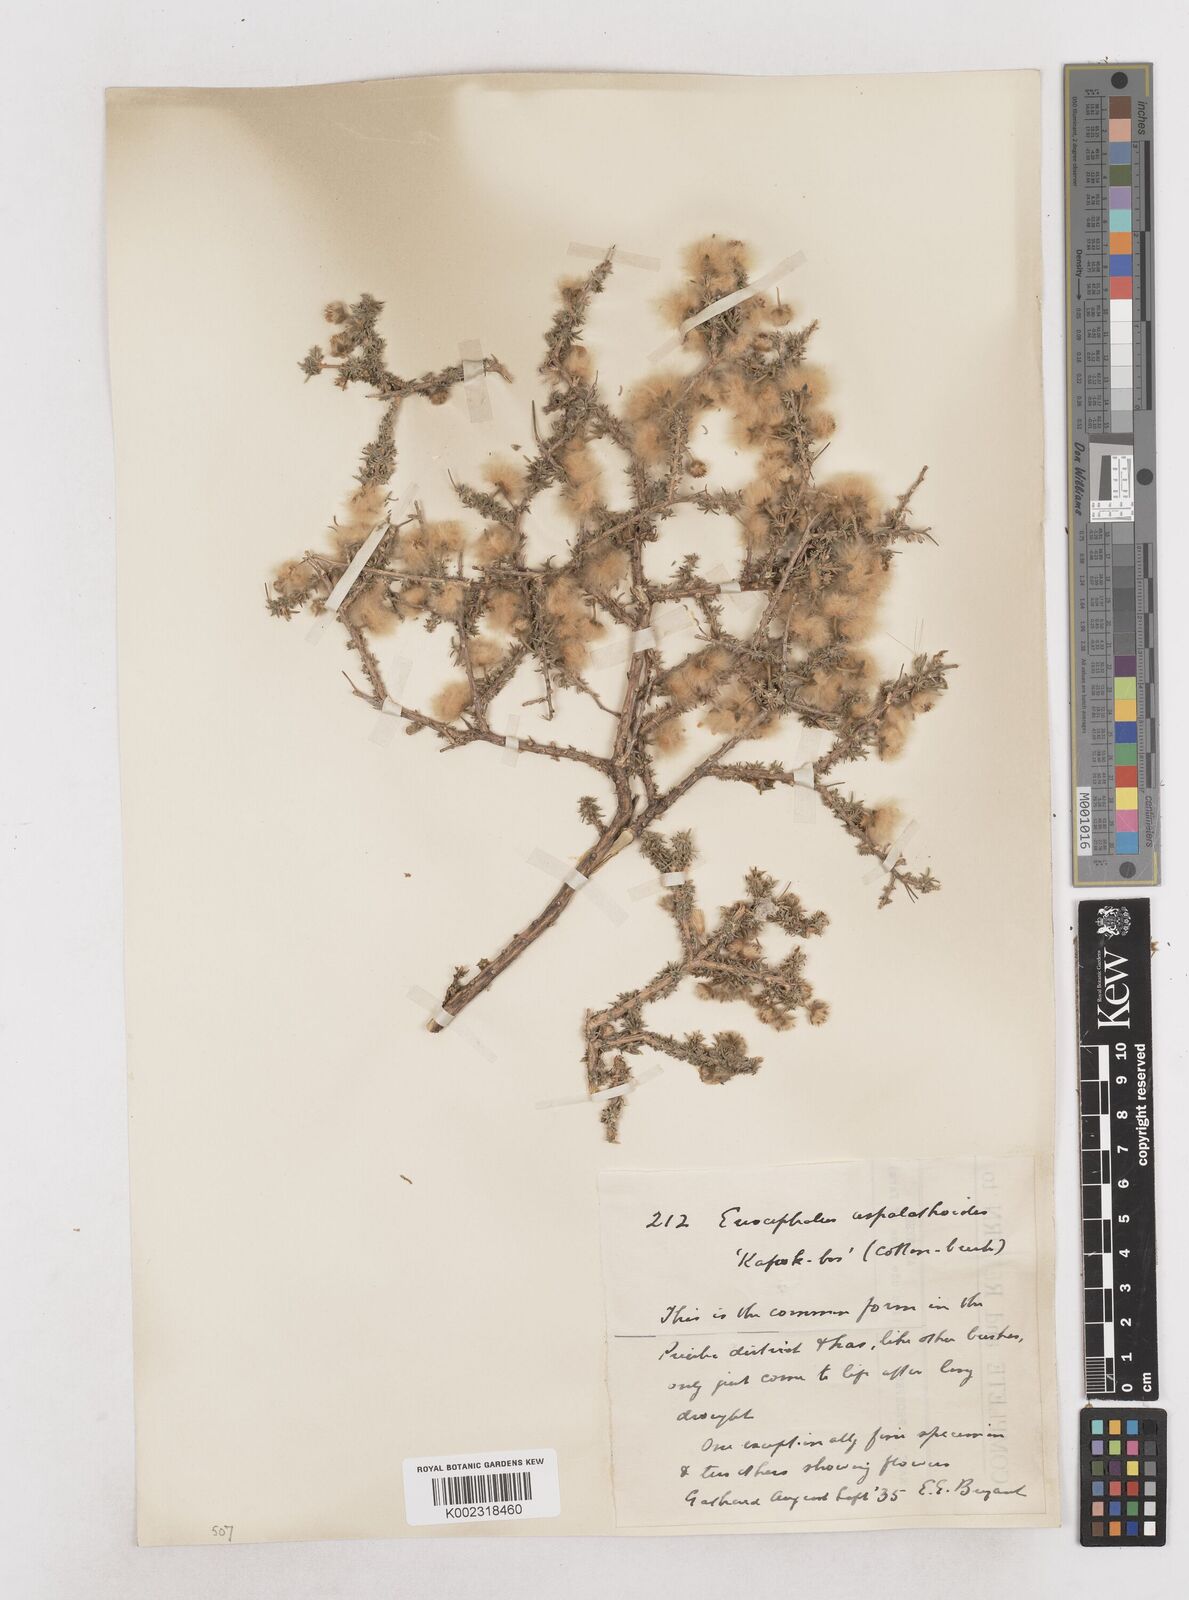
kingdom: Plantae
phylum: Tracheophyta
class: Magnoliopsida
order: Asterales
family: Asteraceae
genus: Eriocephalus
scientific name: Eriocephalus
